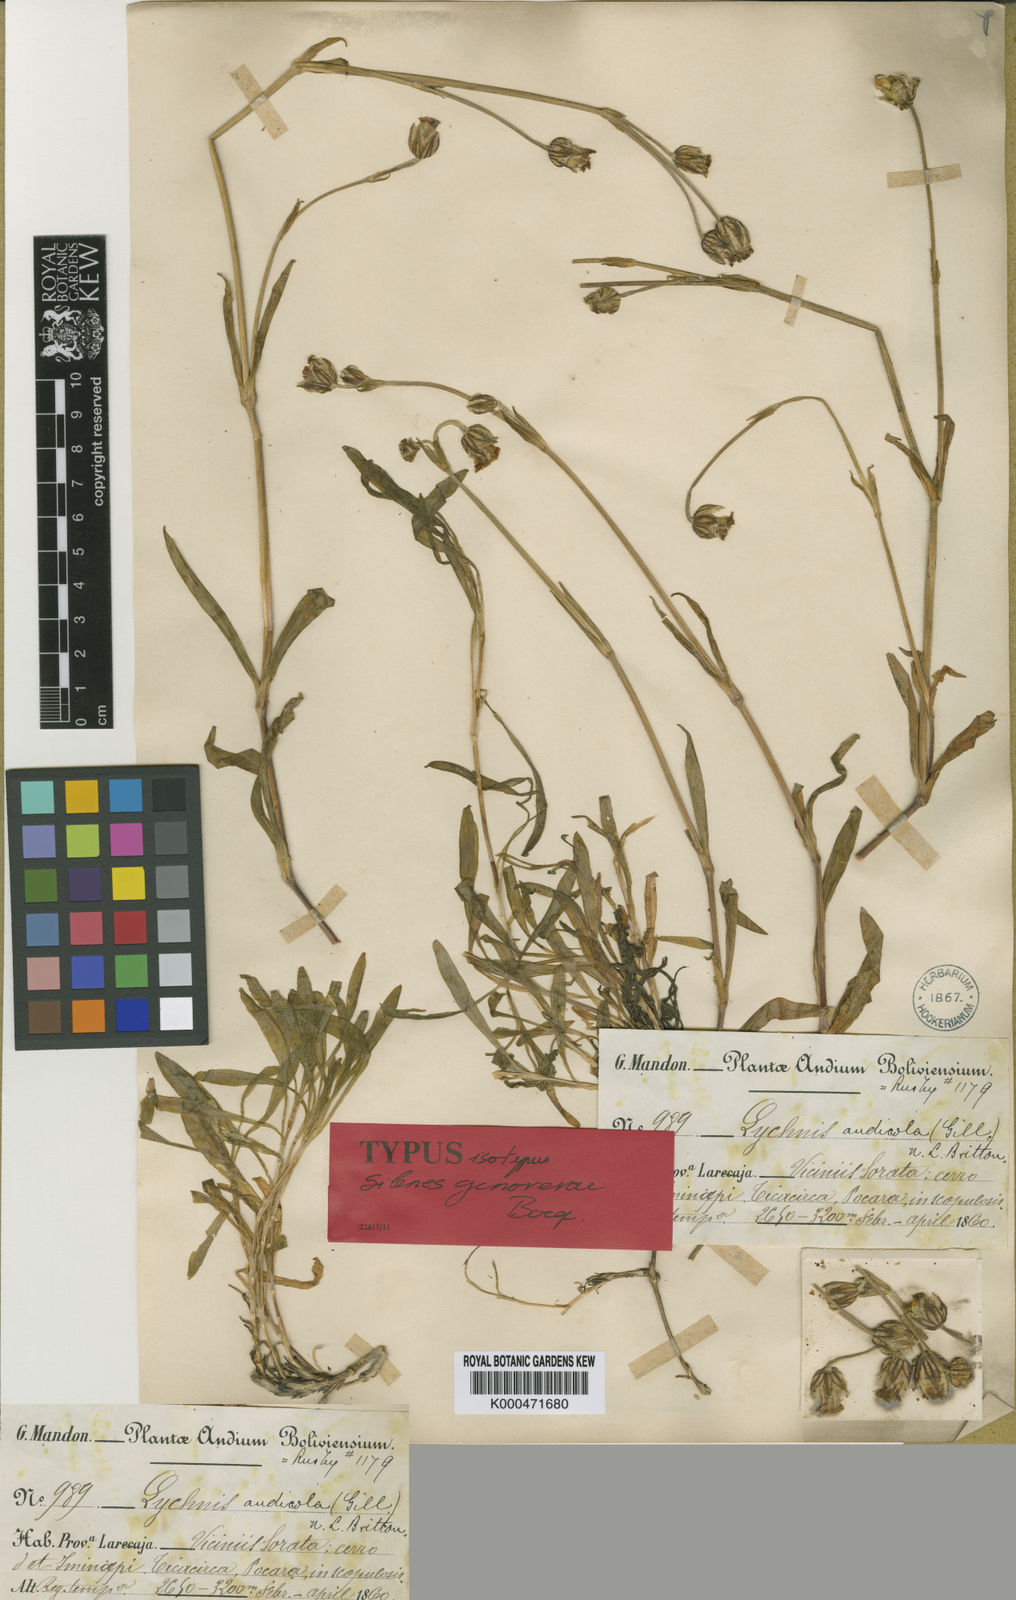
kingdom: Plantae
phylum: Tracheophyta
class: Magnoliopsida
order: Caryophyllales
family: Caryophyllaceae
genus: Silene
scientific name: Silene genovevae
